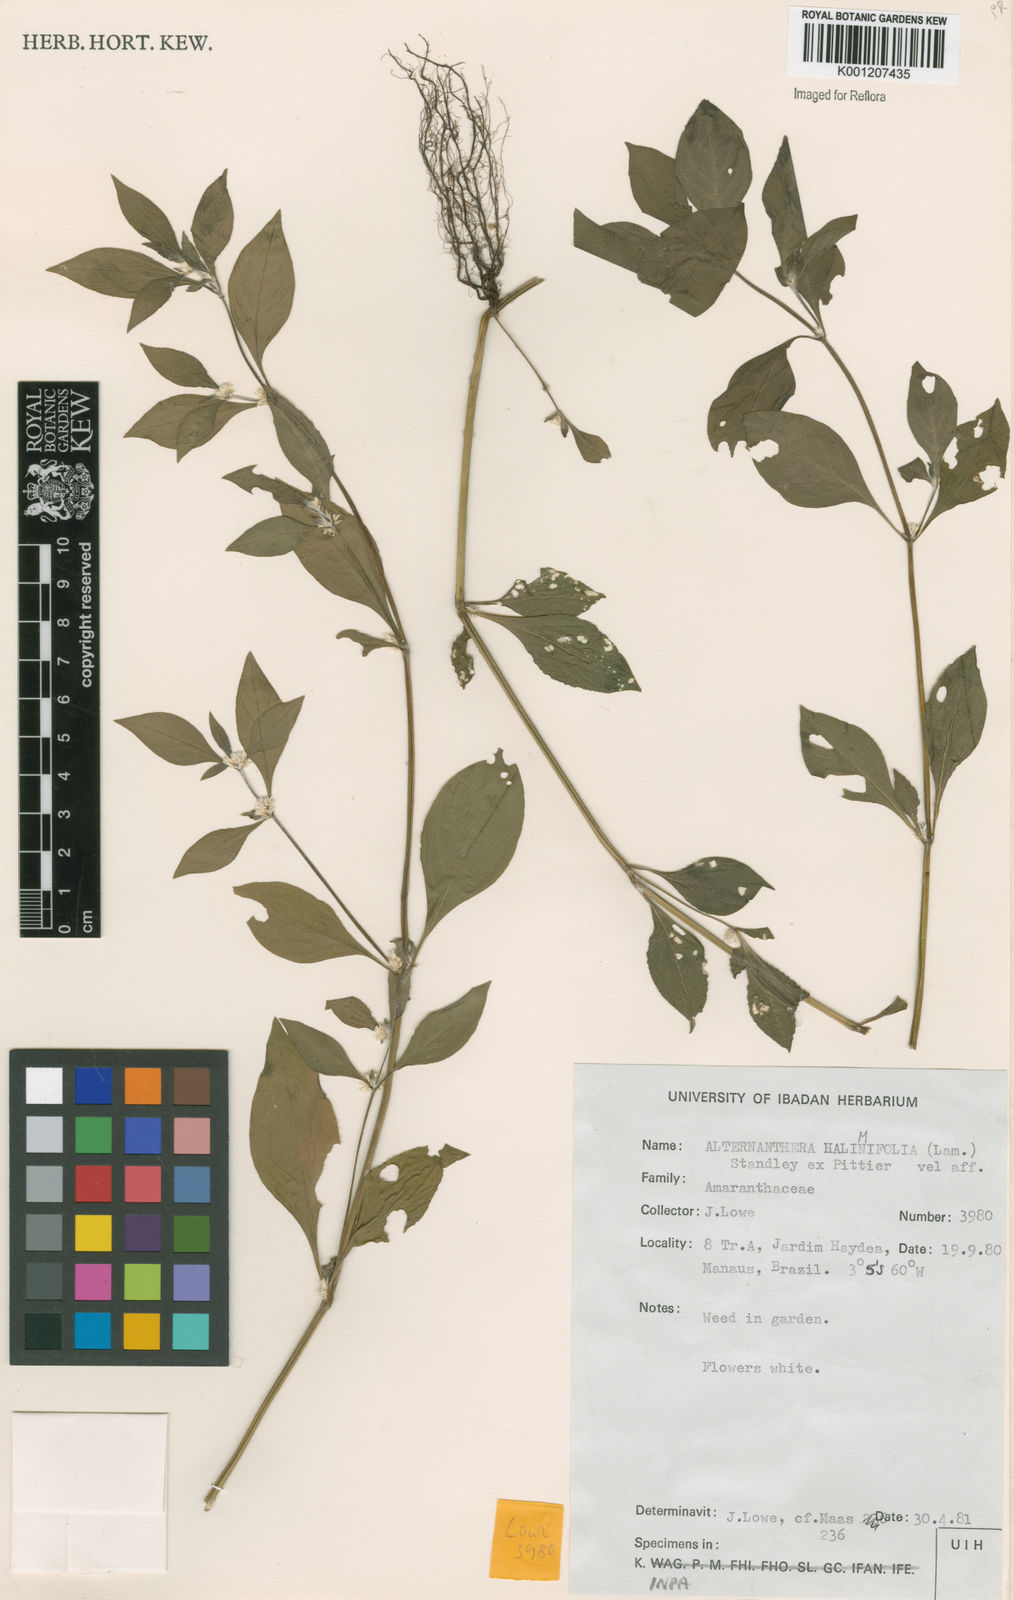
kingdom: Plantae
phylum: Tracheophyta
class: Magnoliopsida
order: Caryophyllales
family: Amaranthaceae
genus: Alternanthera
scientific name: Alternanthera halimifolia
